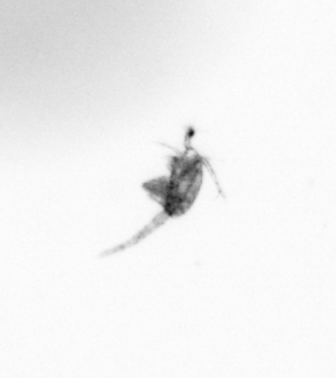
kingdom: Animalia
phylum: Arthropoda
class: Copepoda
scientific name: Copepoda
